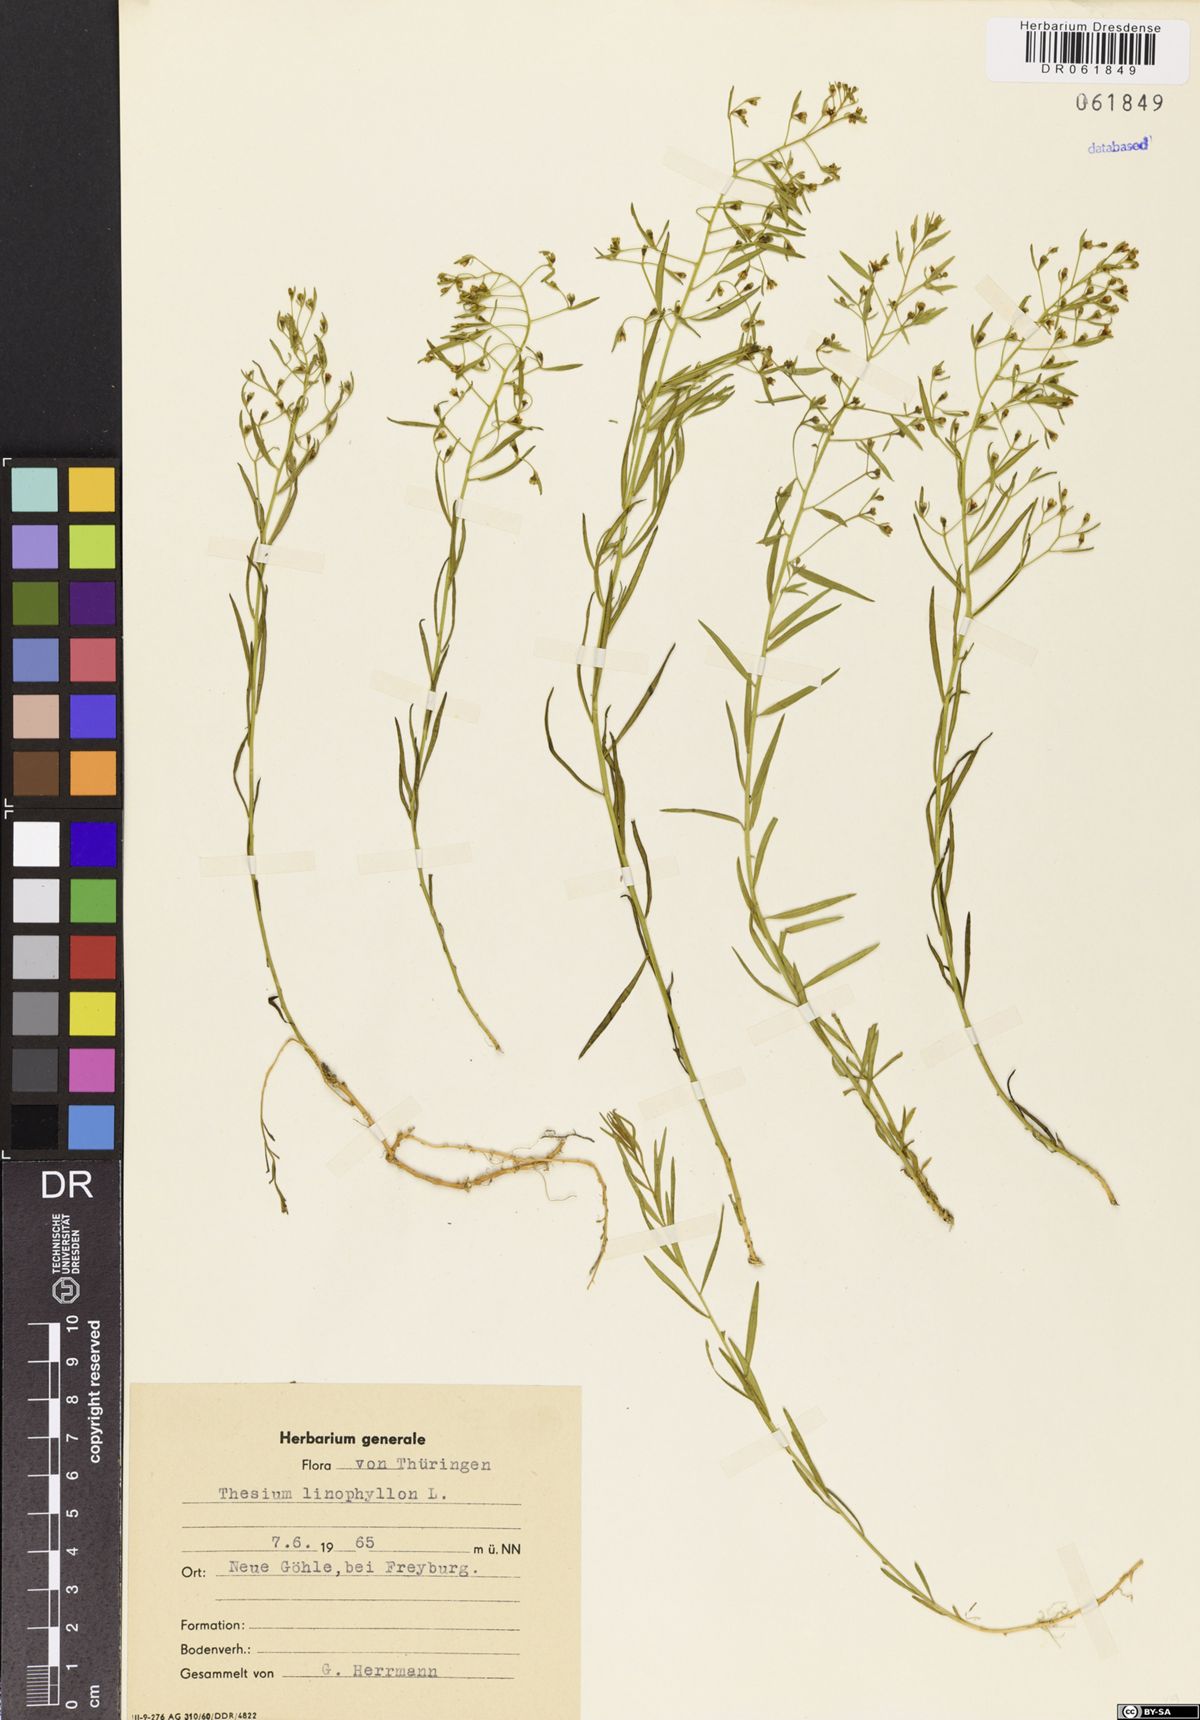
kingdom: Plantae
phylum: Tracheophyta
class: Magnoliopsida
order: Santalales
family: Thesiaceae
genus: Thesium
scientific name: Thesium linophyllon
